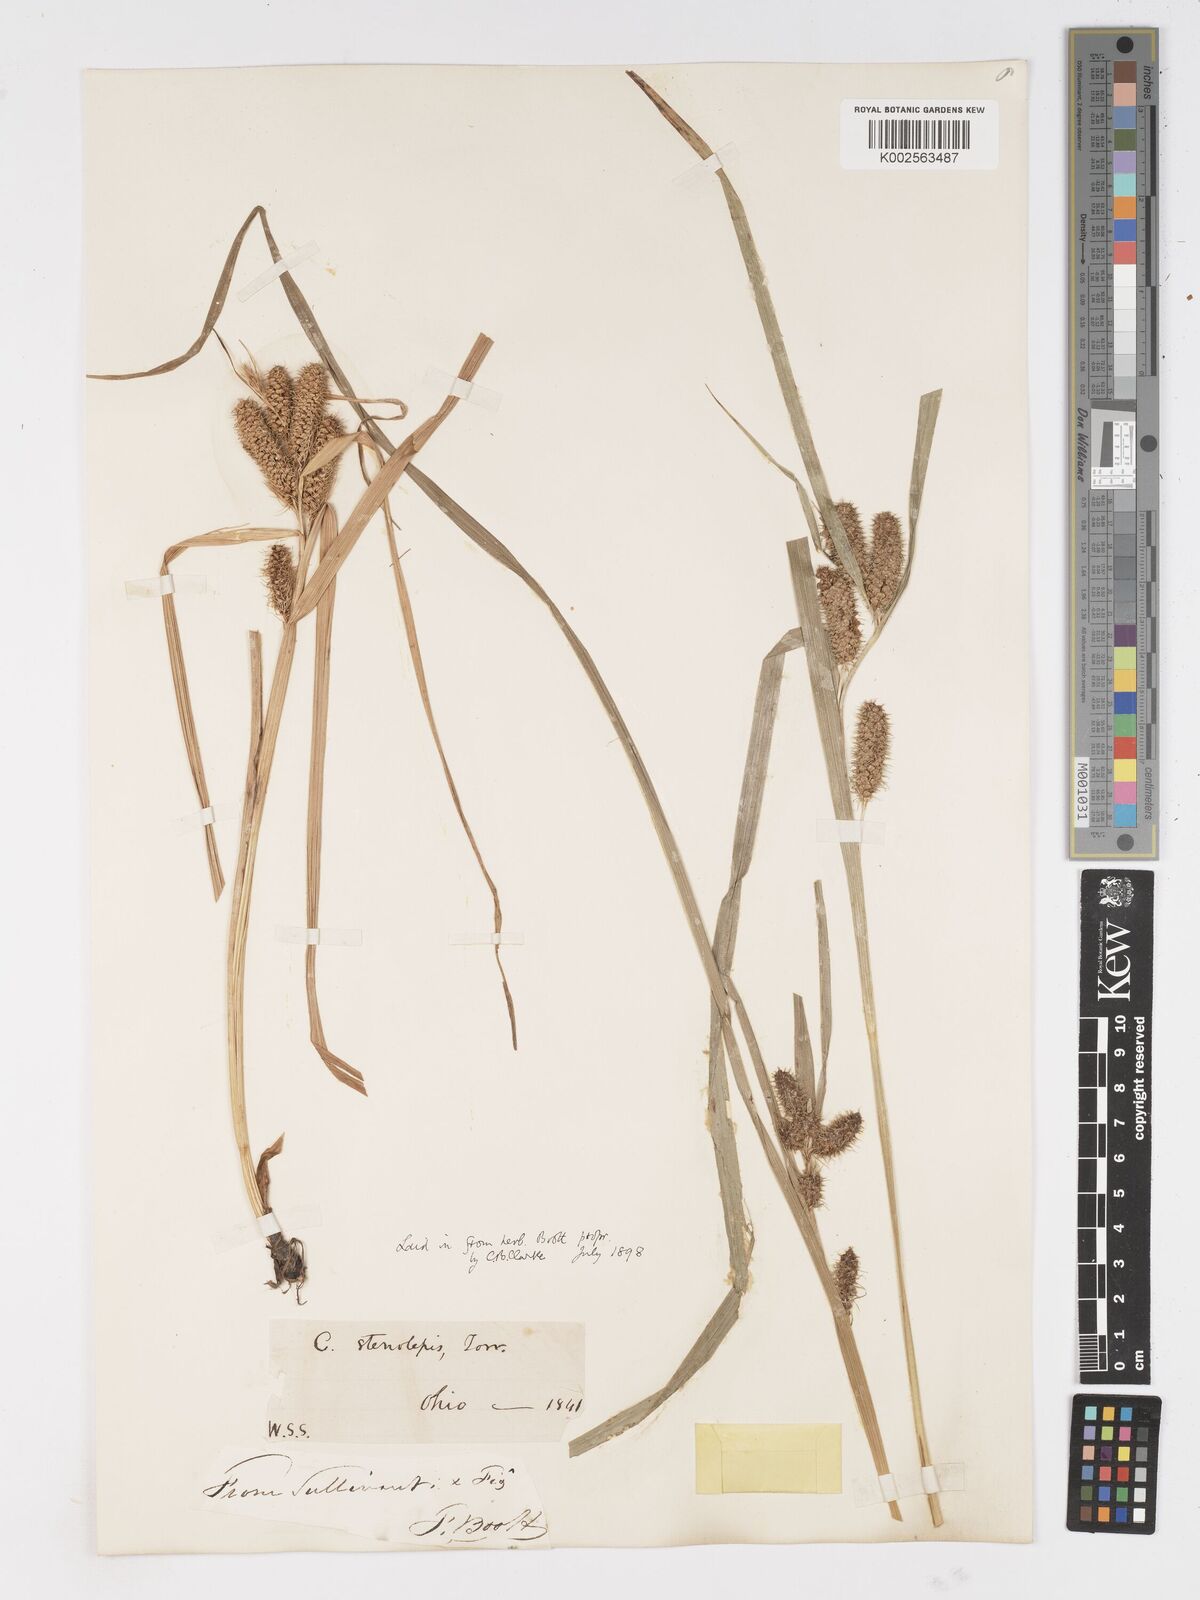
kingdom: Plantae
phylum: Tracheophyta
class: Liliopsida
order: Poales
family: Cyperaceae
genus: Carex
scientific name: Carex frankii
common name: Frank's sedge
